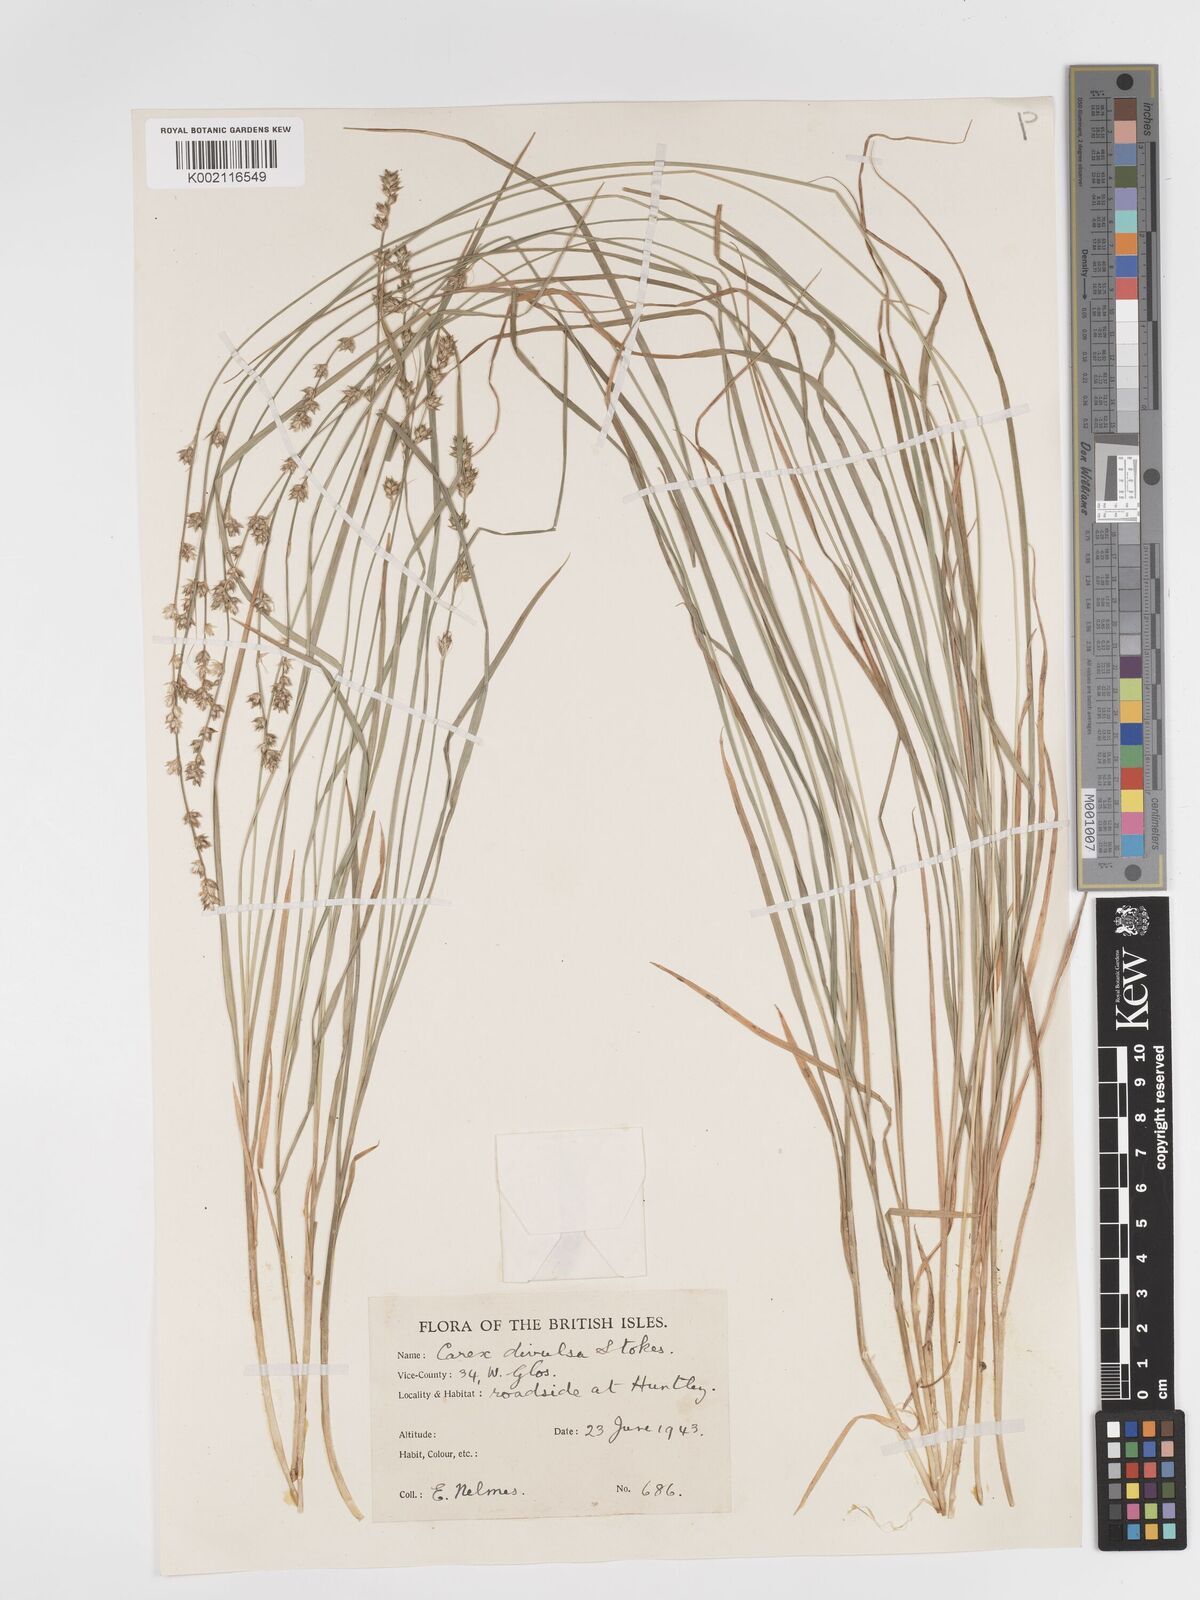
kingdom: Plantae
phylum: Tracheophyta
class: Liliopsida
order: Poales
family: Cyperaceae
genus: Carex
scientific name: Carex divulsa
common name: Grassland sedge
